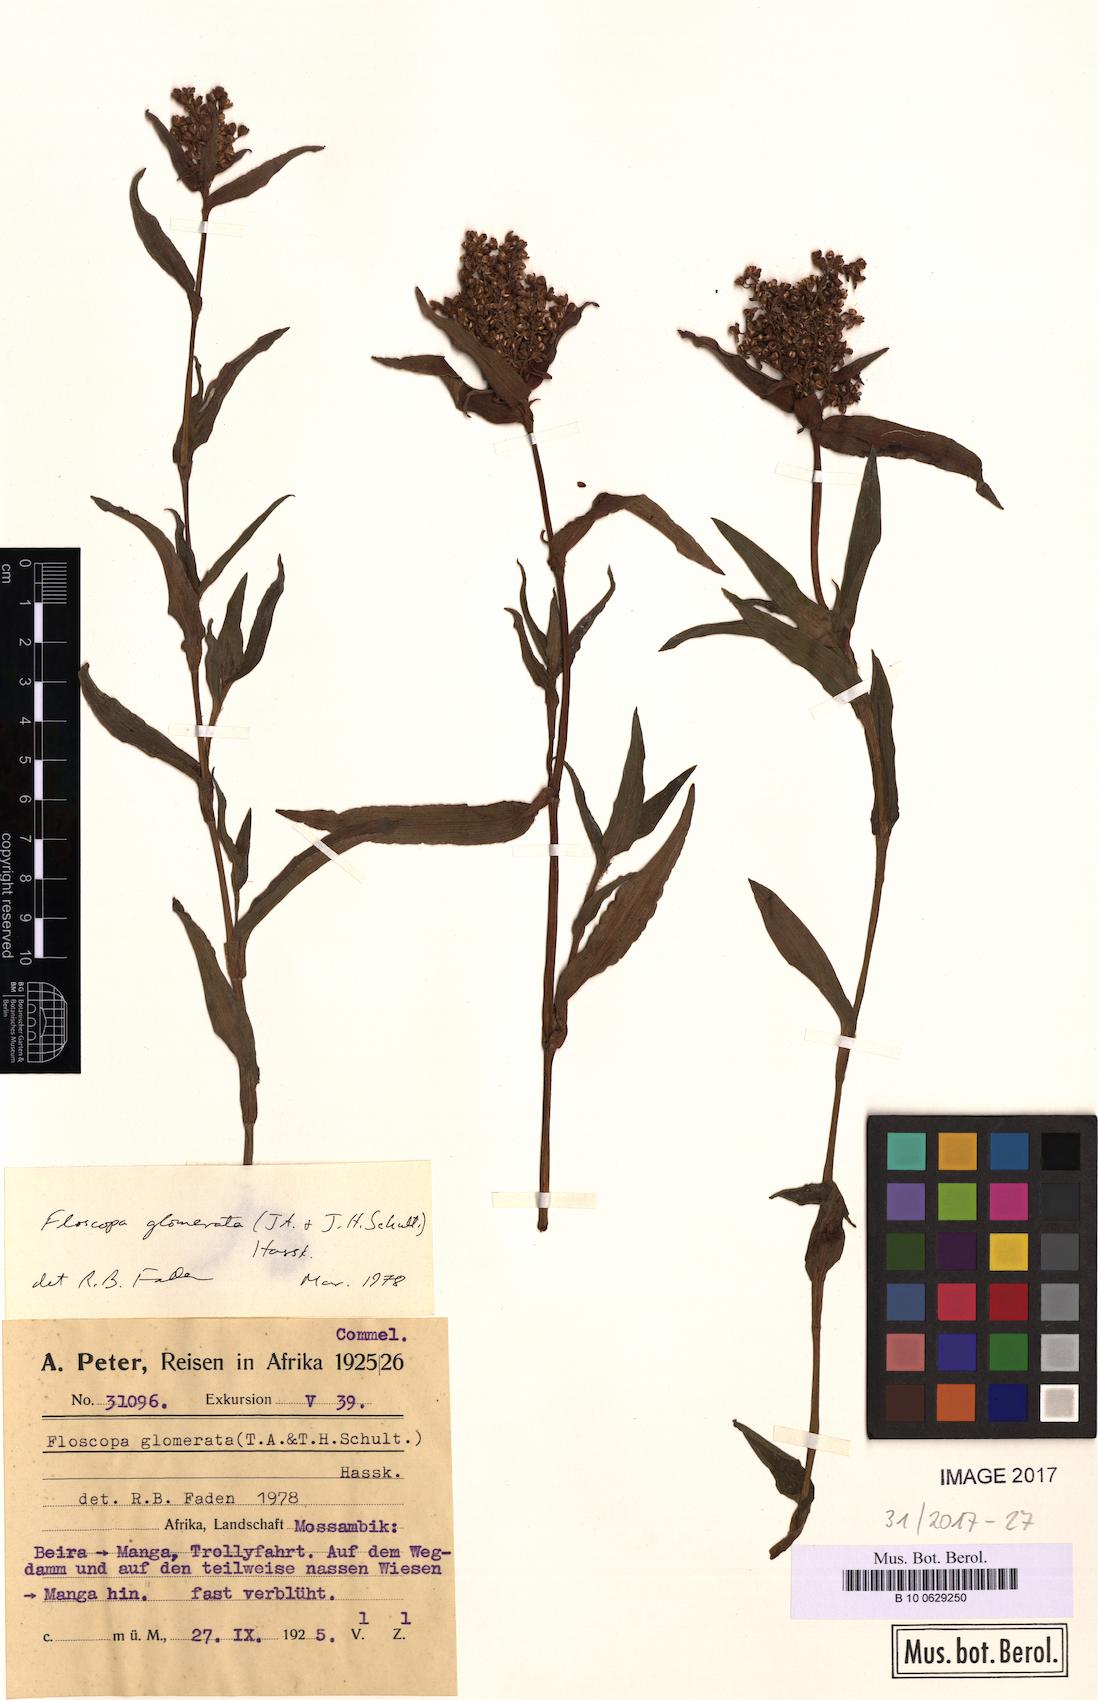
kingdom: Plantae
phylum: Tracheophyta
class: Liliopsida
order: Commelinales
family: Commelinaceae
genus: Floscopa
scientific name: Floscopa glomerata
